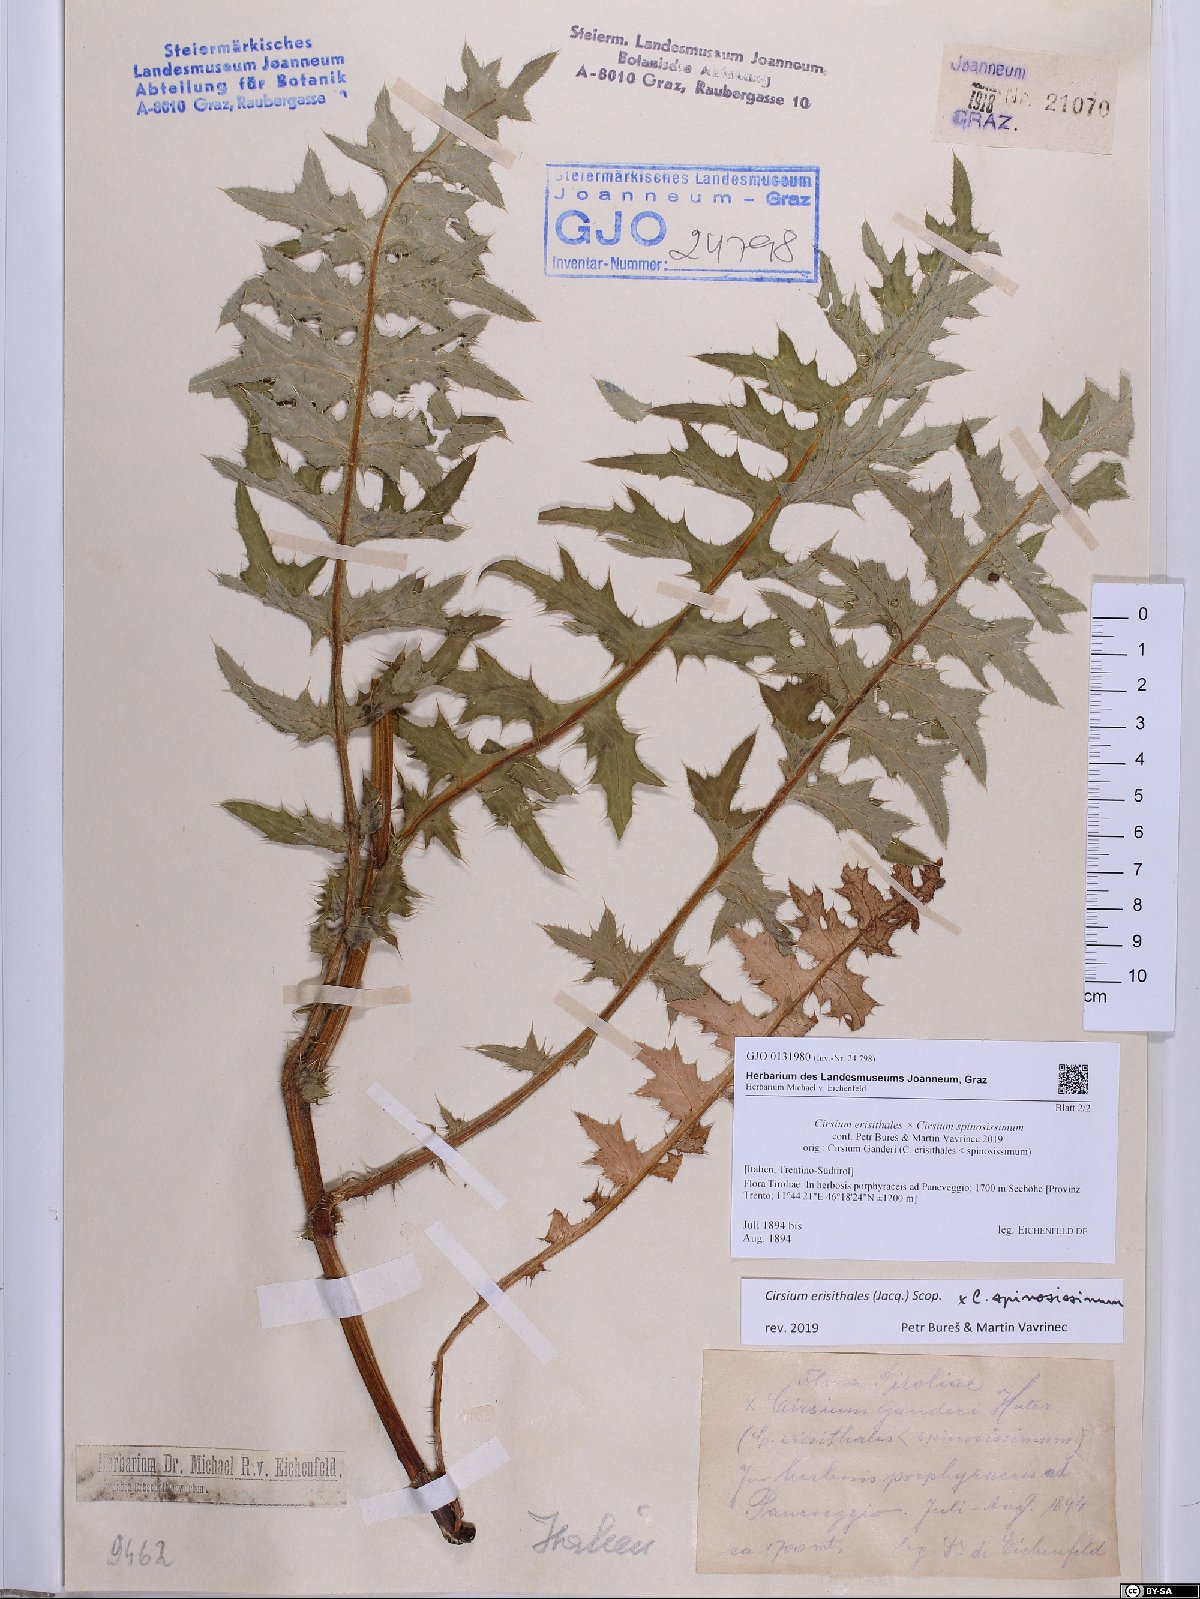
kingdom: Plantae
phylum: Tracheophyta
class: Magnoliopsida
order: Asterales
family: Asteraceae
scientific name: Asteraceae
